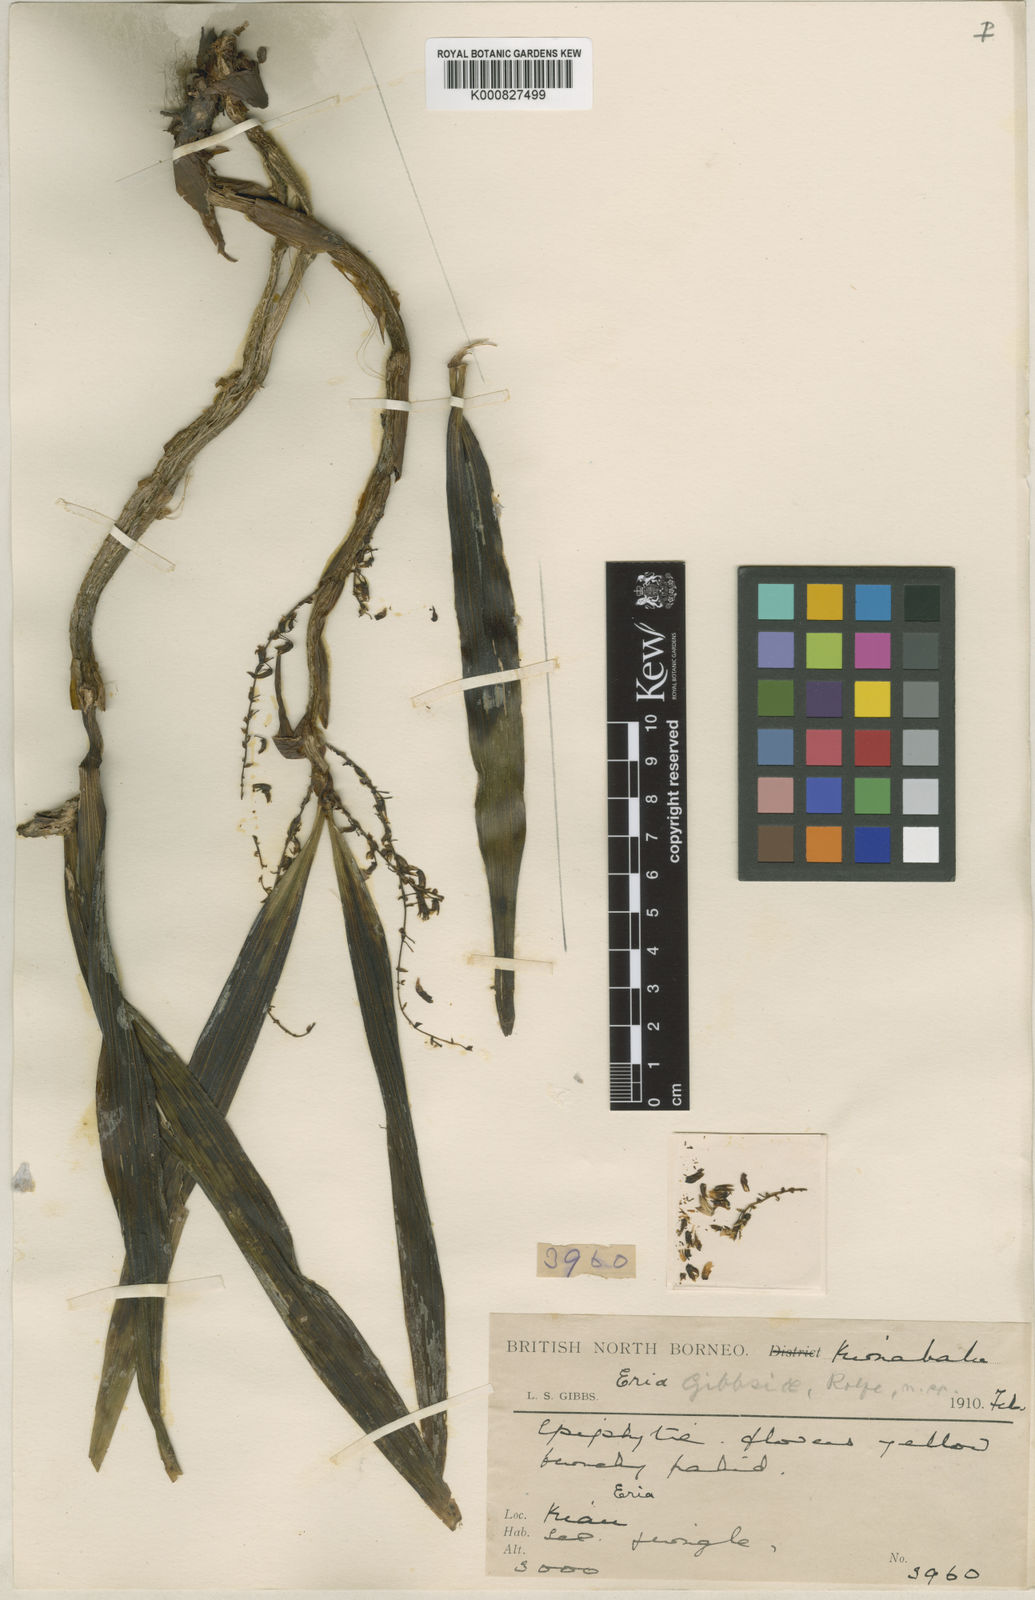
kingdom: Plantae
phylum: Tracheophyta
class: Liliopsida
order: Asparagales
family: Orchidaceae
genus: Pinalia
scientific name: Pinalia tenuiflora
